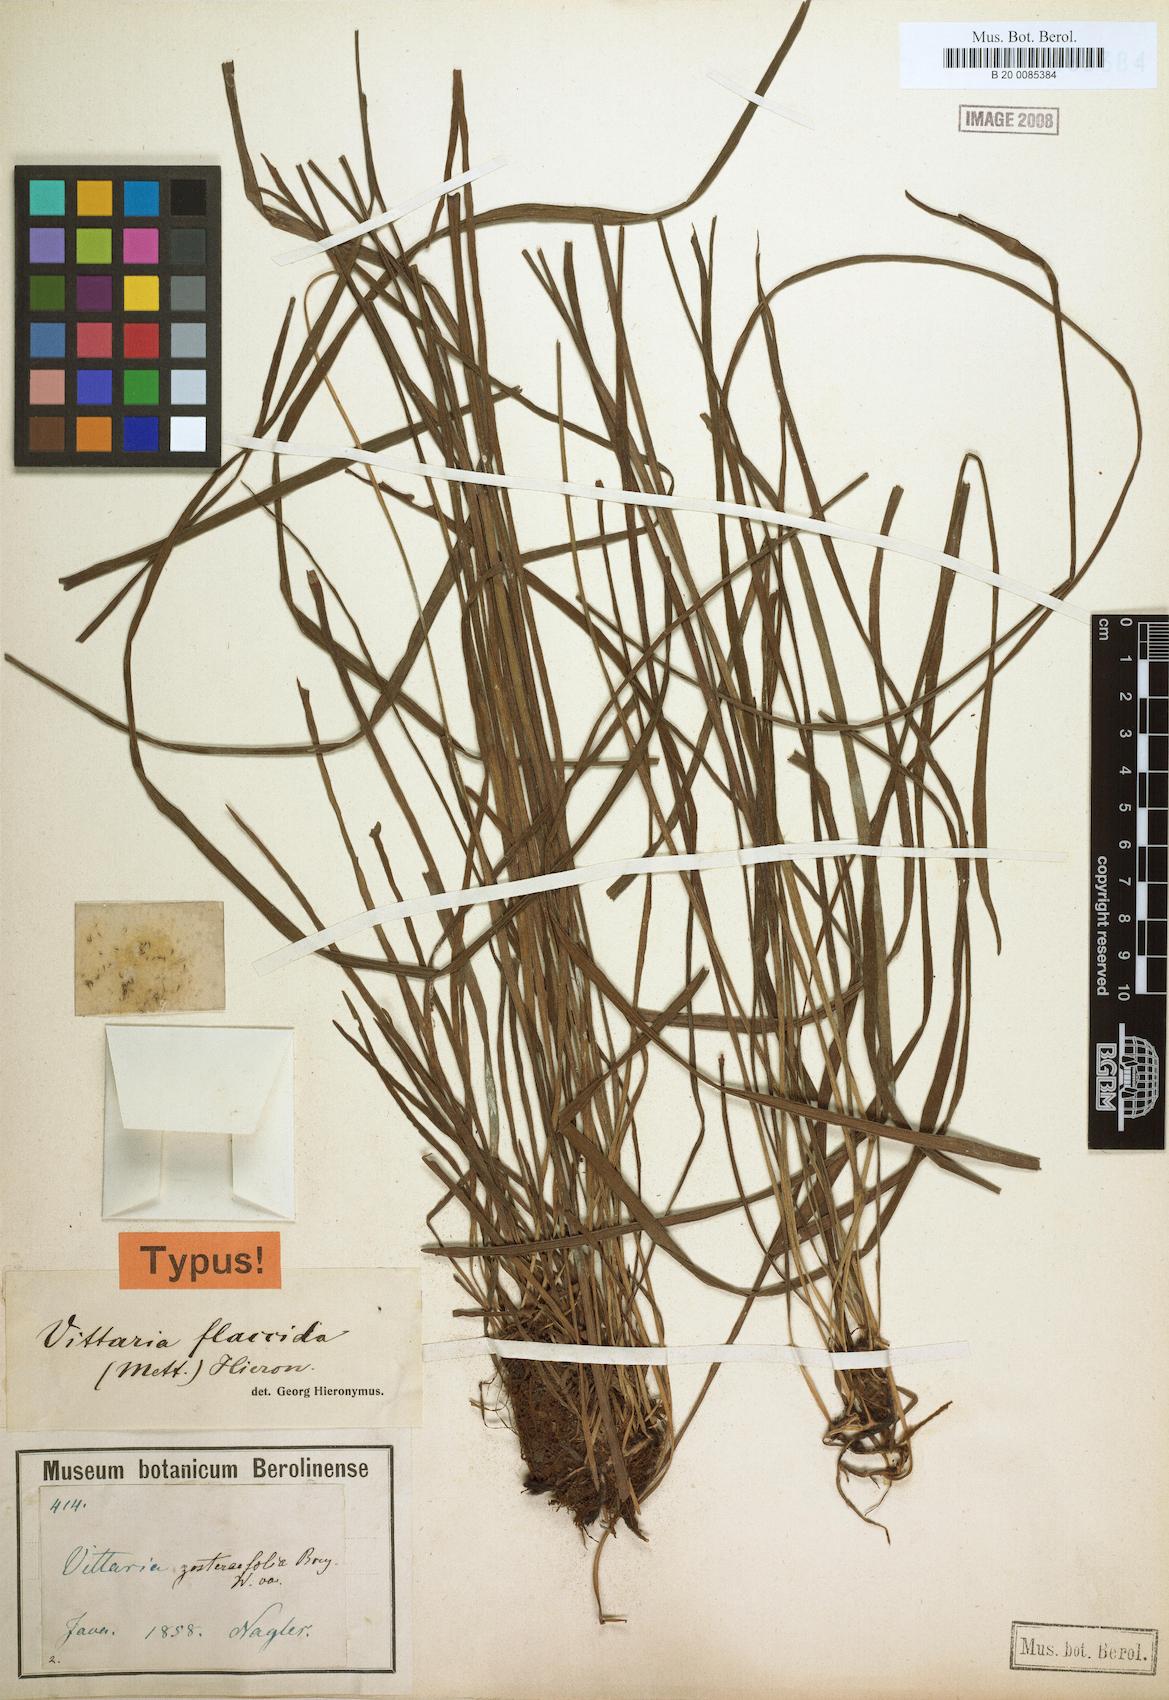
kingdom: Plantae
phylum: Tracheophyta
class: Polypodiopsida
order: Polypodiales
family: Pteridaceae
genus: Haplopteris
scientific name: Haplopteris elongata
